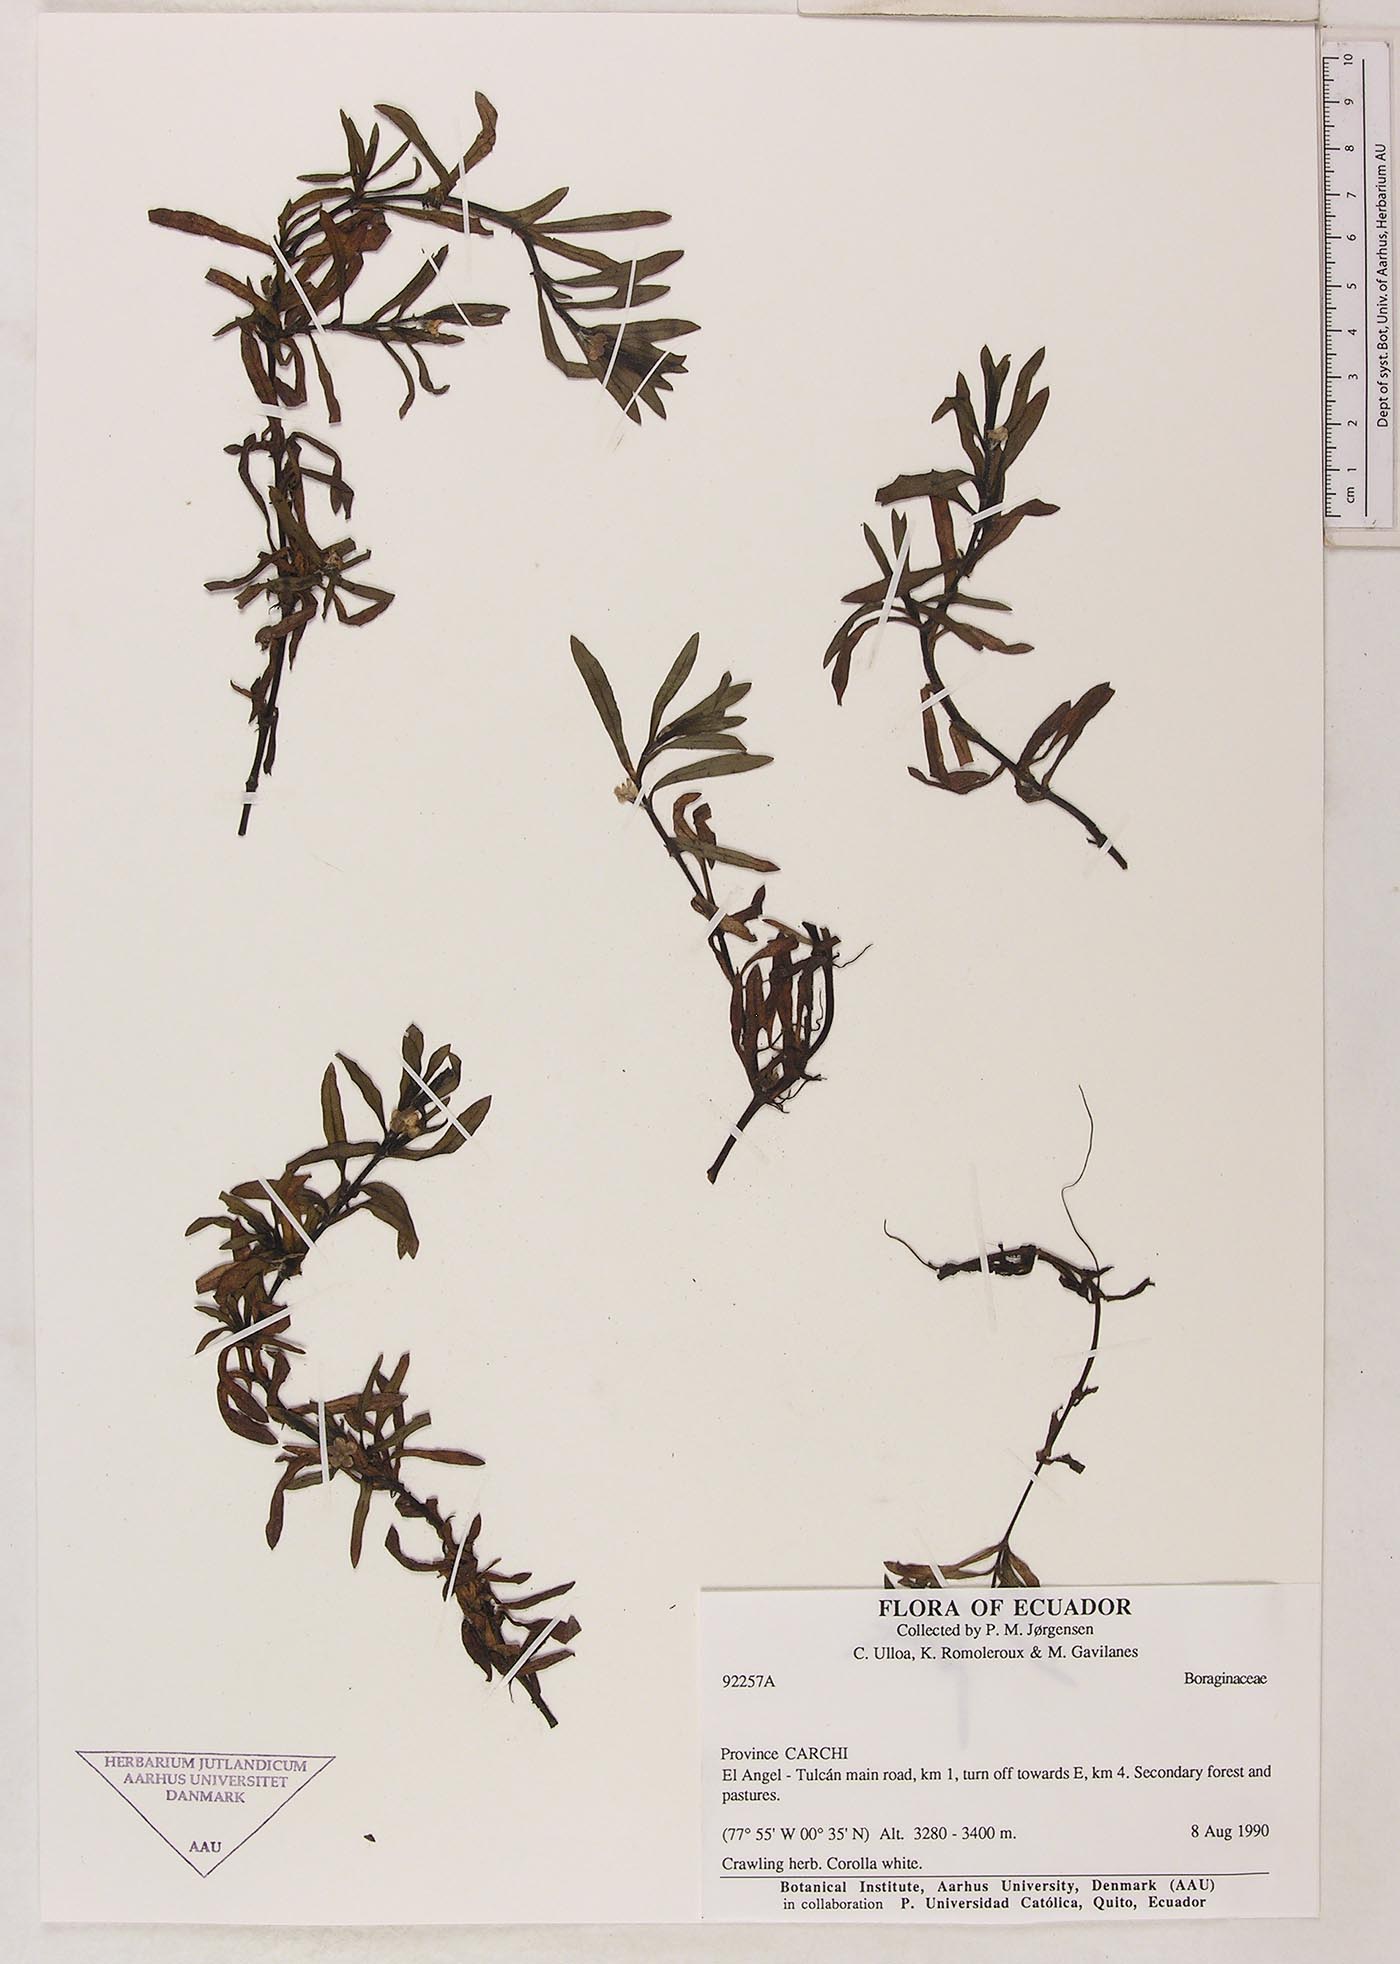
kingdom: Plantae
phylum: Tracheophyta
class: Magnoliopsida
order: Boraginales
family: Boraginaceae
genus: Plagiobothrys
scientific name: Plagiobothrys linifolius
